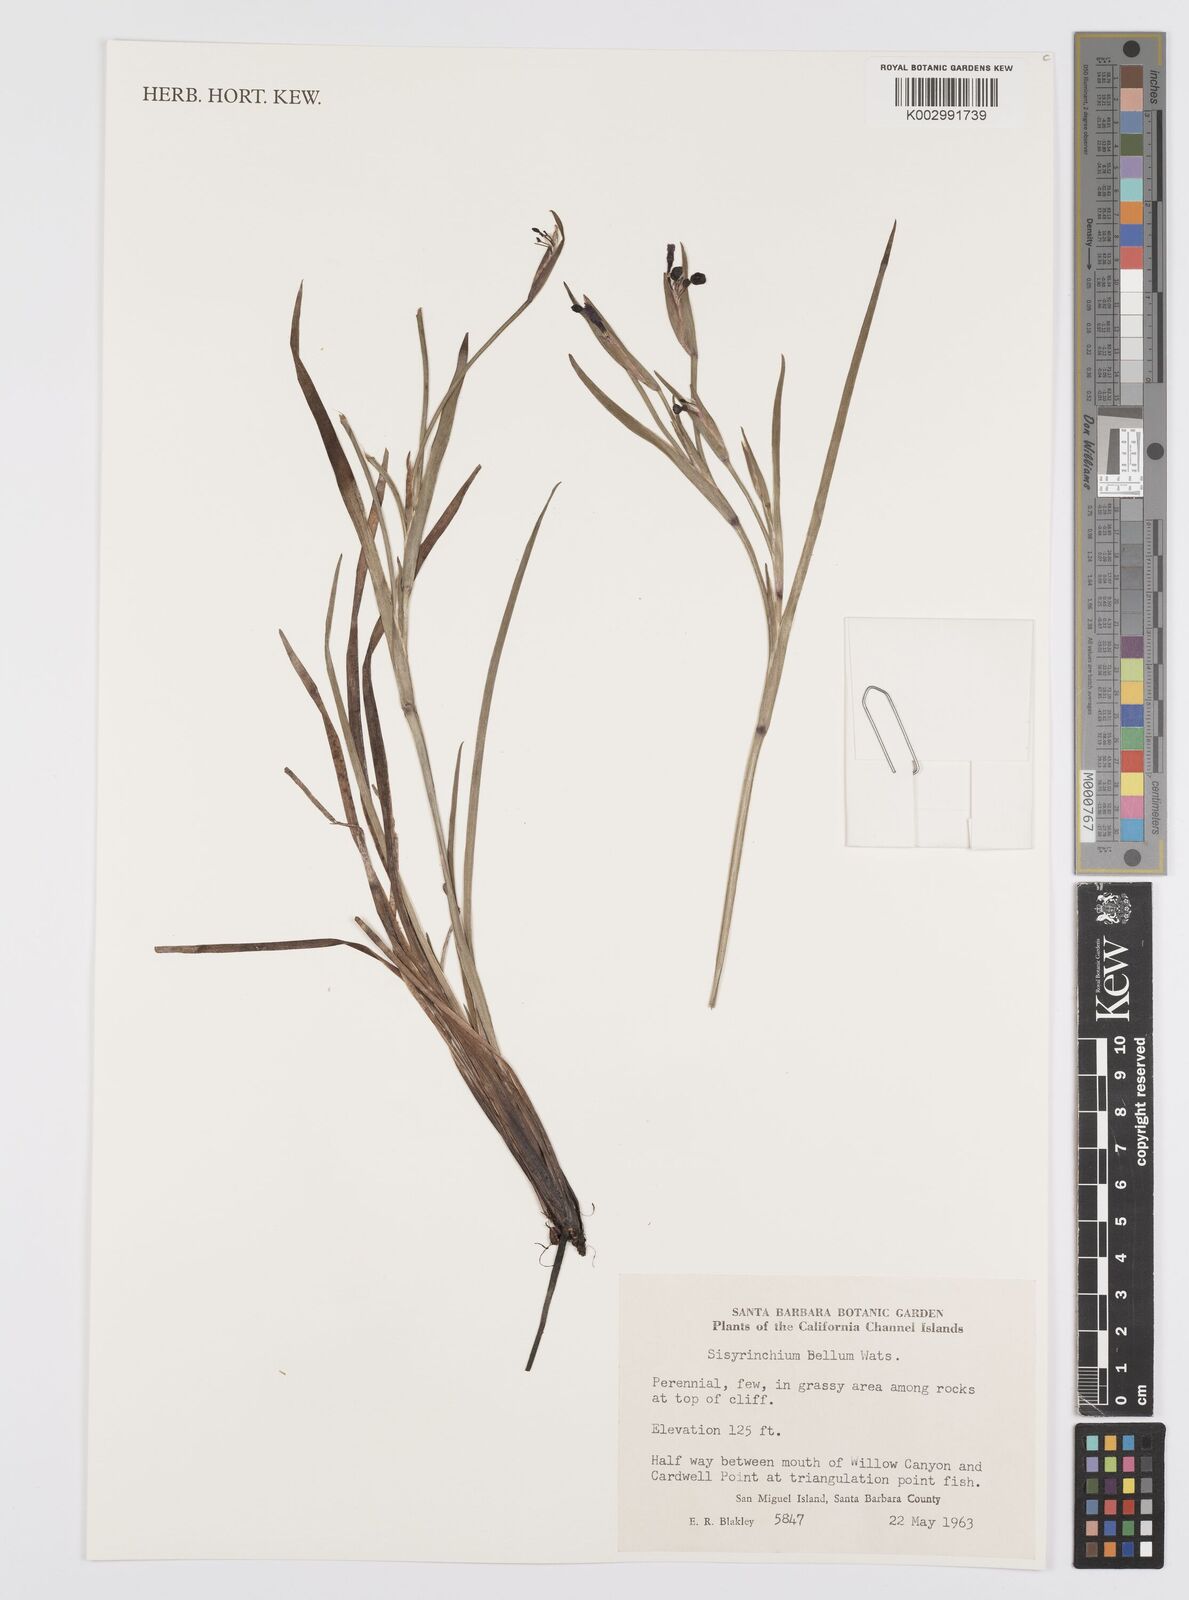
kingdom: Plantae
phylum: Tracheophyta
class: Liliopsida
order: Asparagales
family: Iridaceae
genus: Sisyrinchium
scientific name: Sisyrinchium bellum
